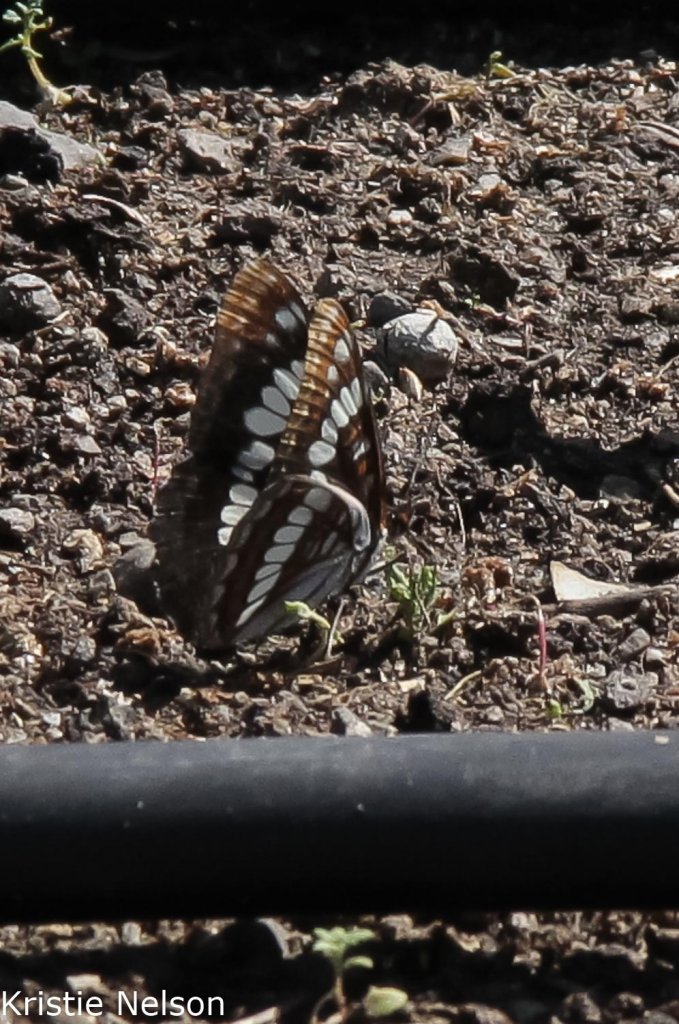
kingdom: Animalia
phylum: Arthropoda
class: Insecta
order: Lepidoptera
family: Nymphalidae
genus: Limenitis
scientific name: Limenitis lorquini
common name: Lorquin's Admiral
